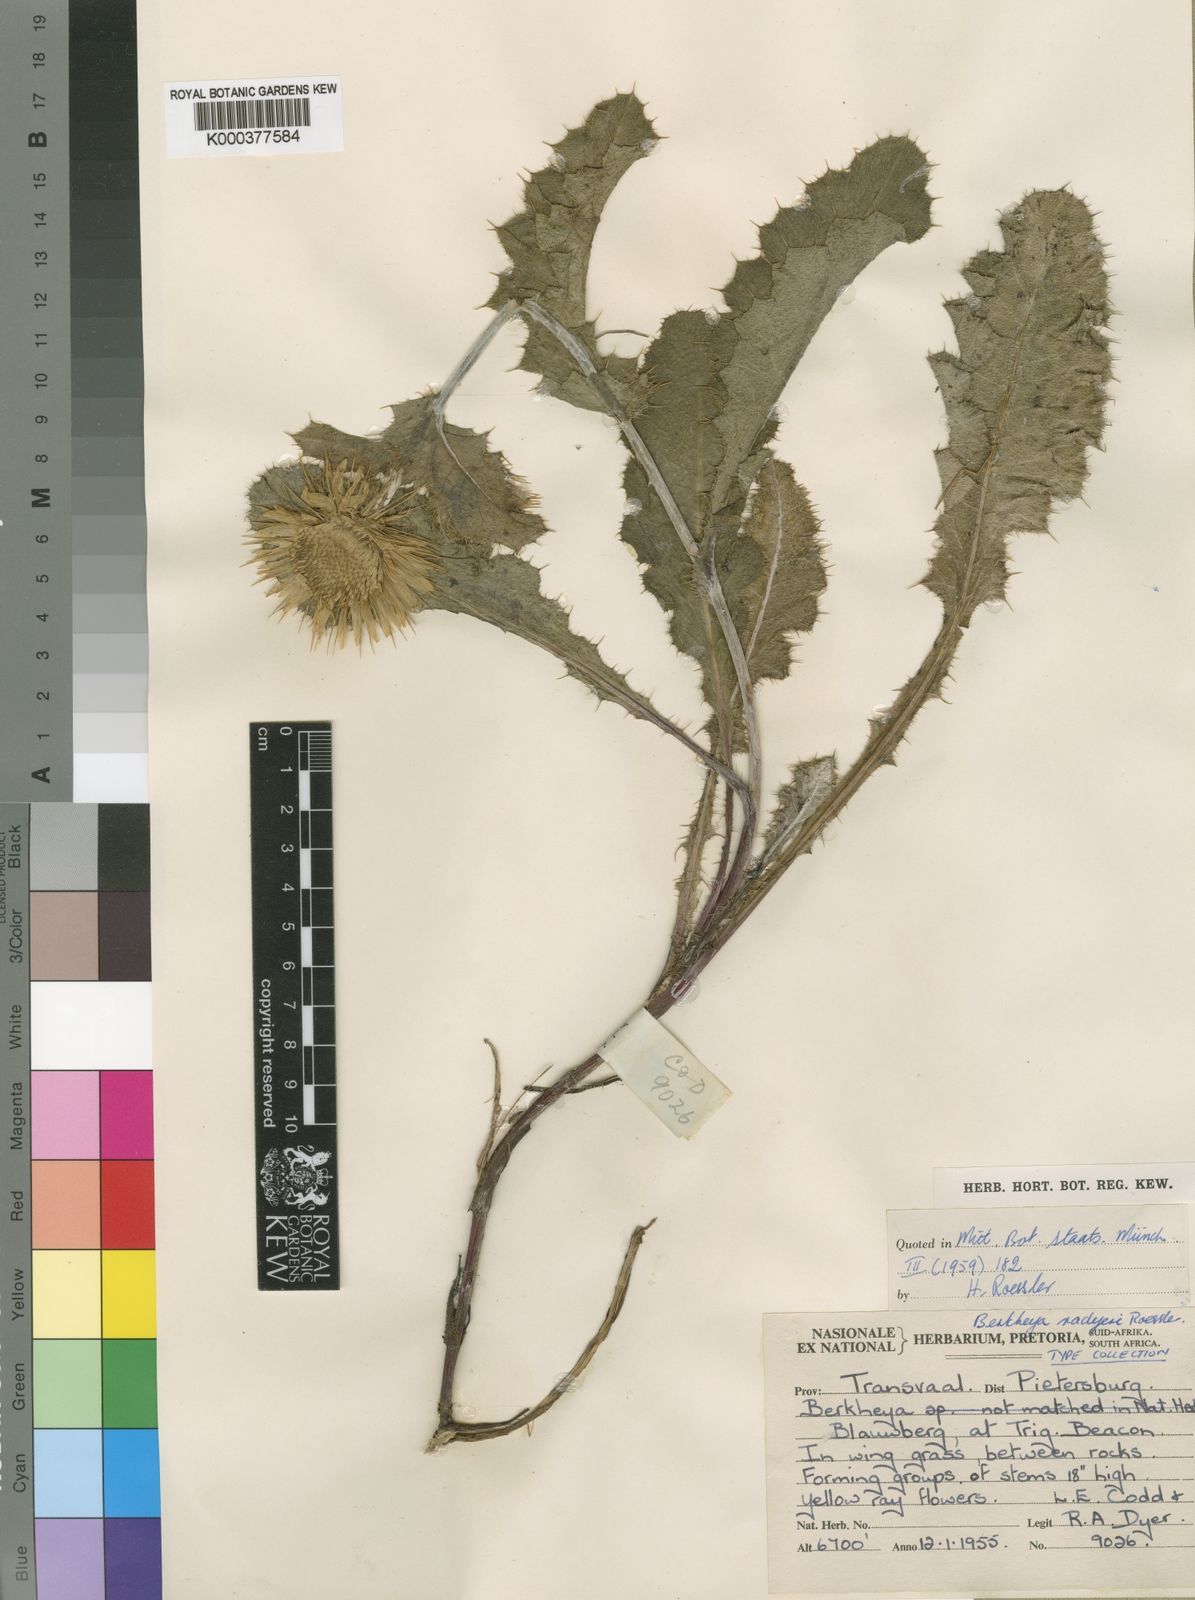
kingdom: Plantae
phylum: Tracheophyta
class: Magnoliopsida
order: Asterales
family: Asteraceae
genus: Berkheya
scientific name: Berkheya radyeri
